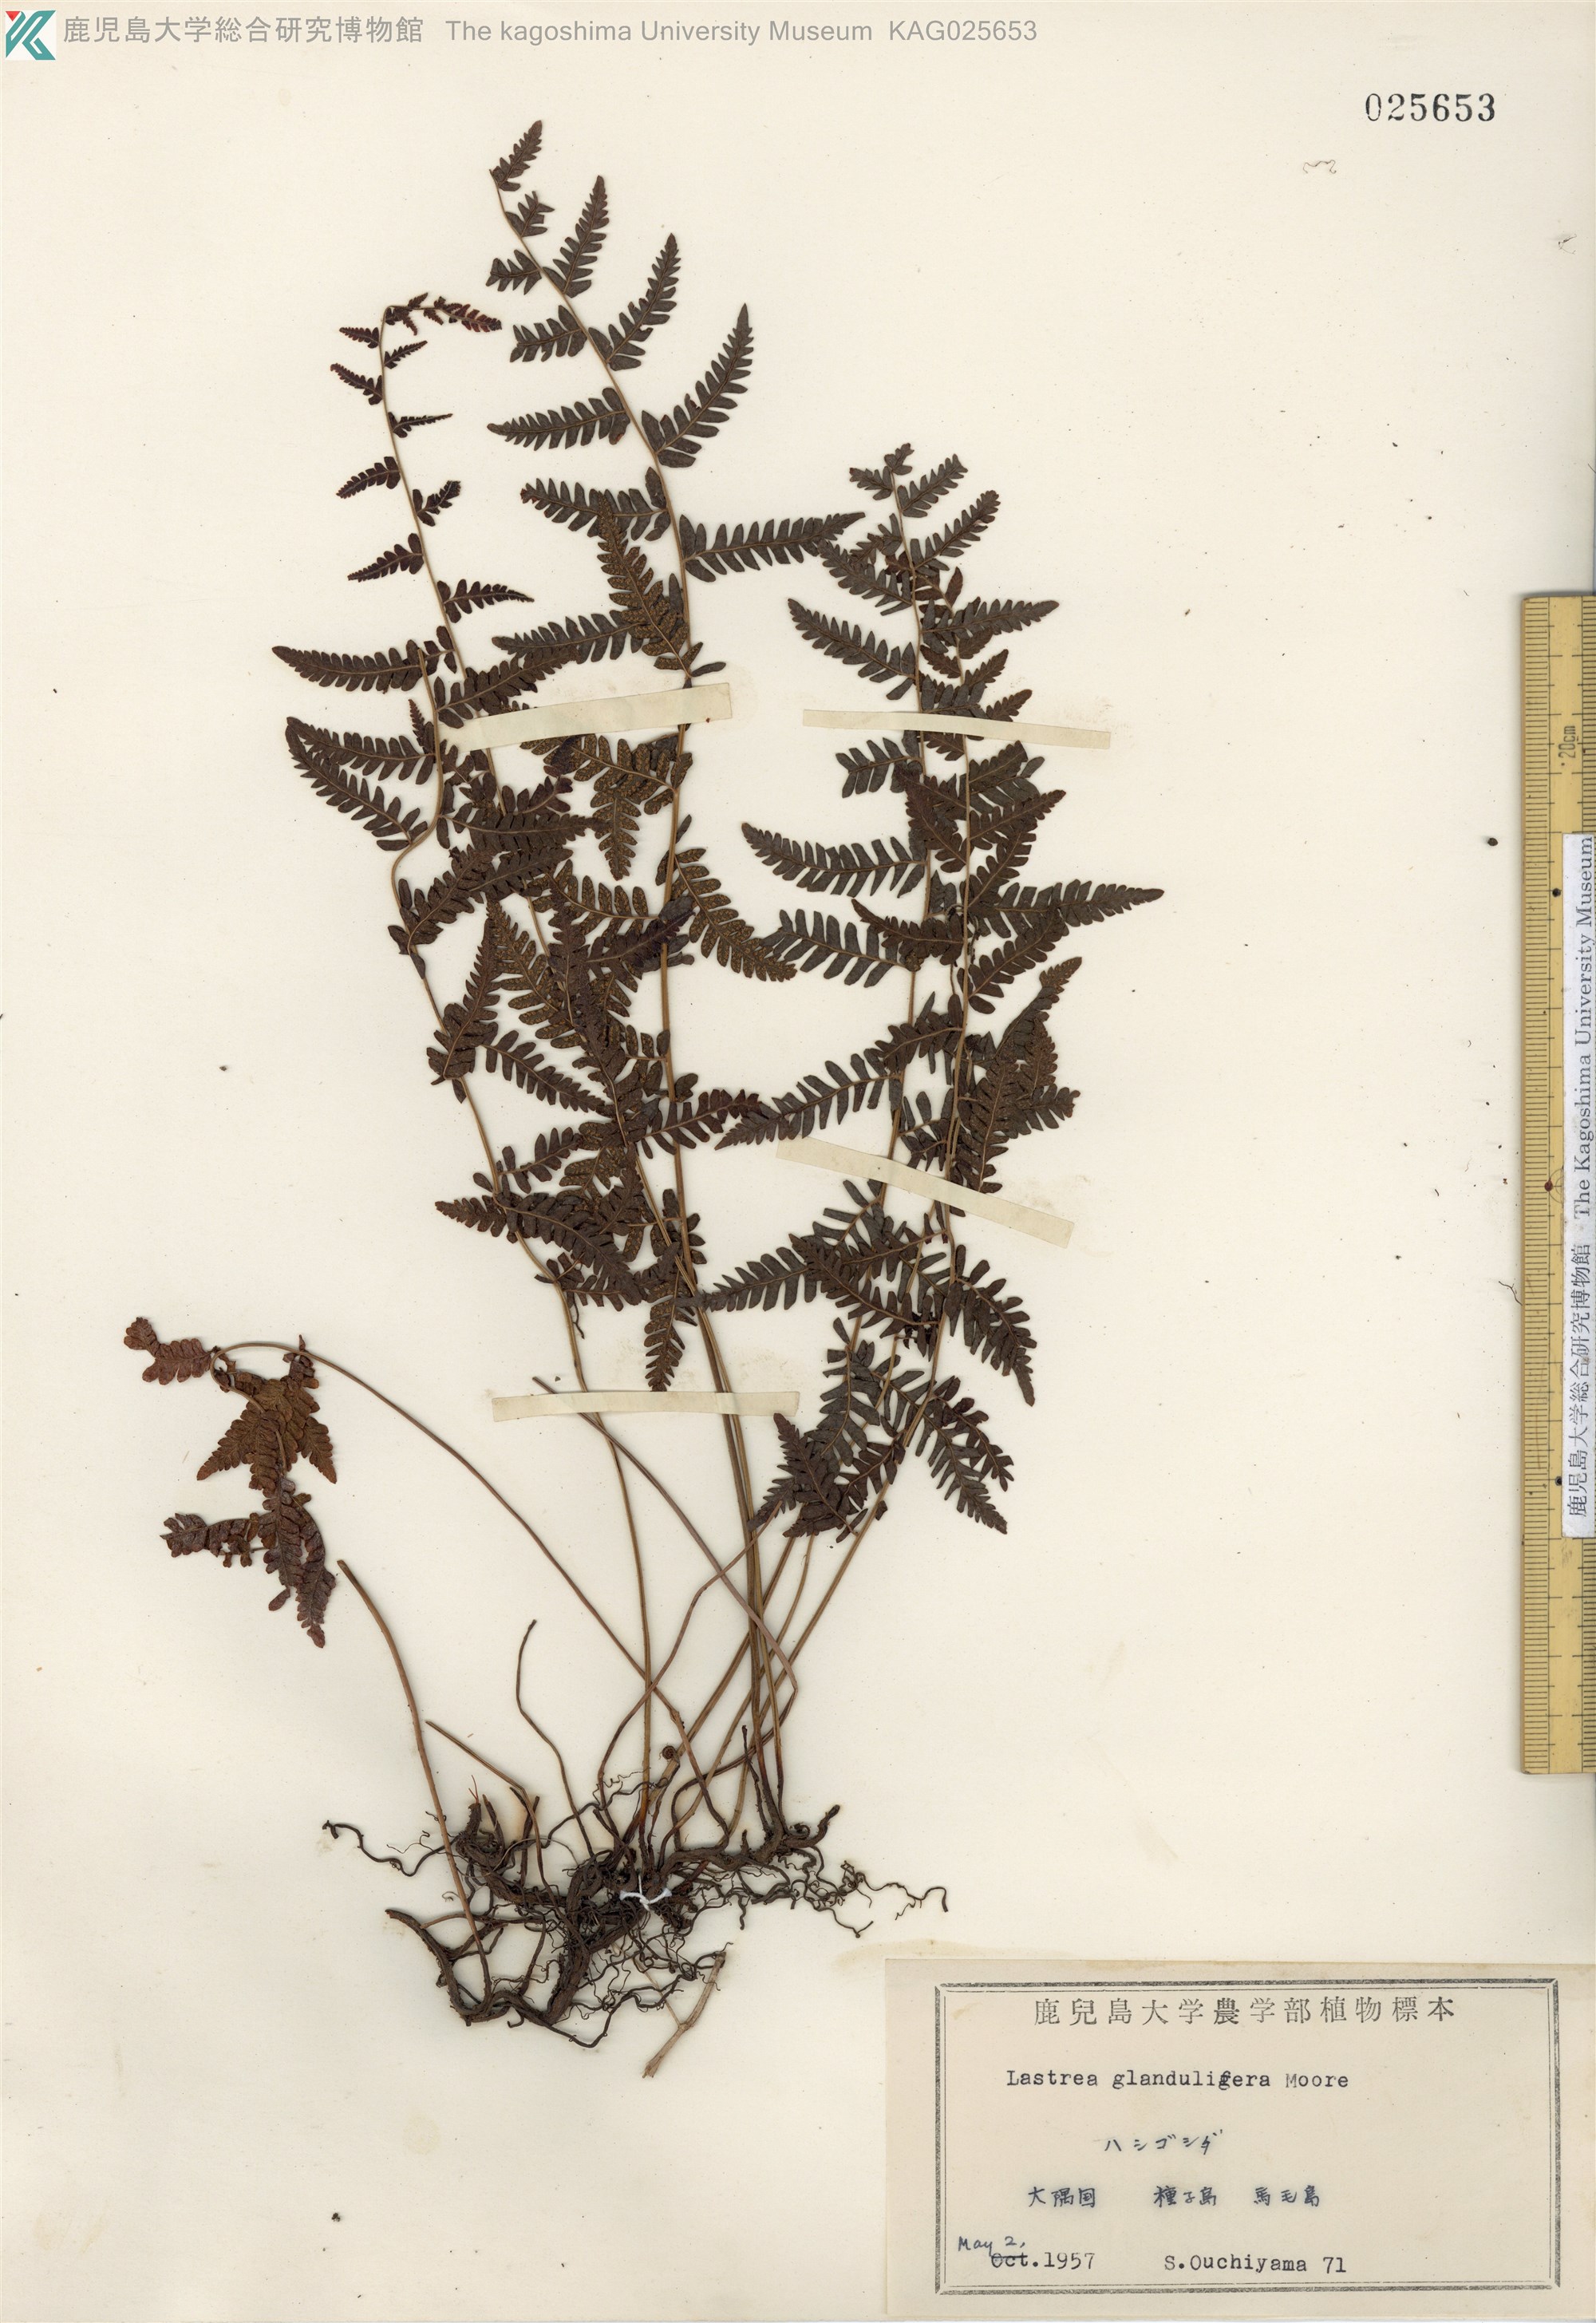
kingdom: Plantae
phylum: Tracheophyta
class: Polypodiopsida
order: Polypodiales
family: Thelypteridaceae
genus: Amauropelta
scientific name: Amauropelta angustifrons
